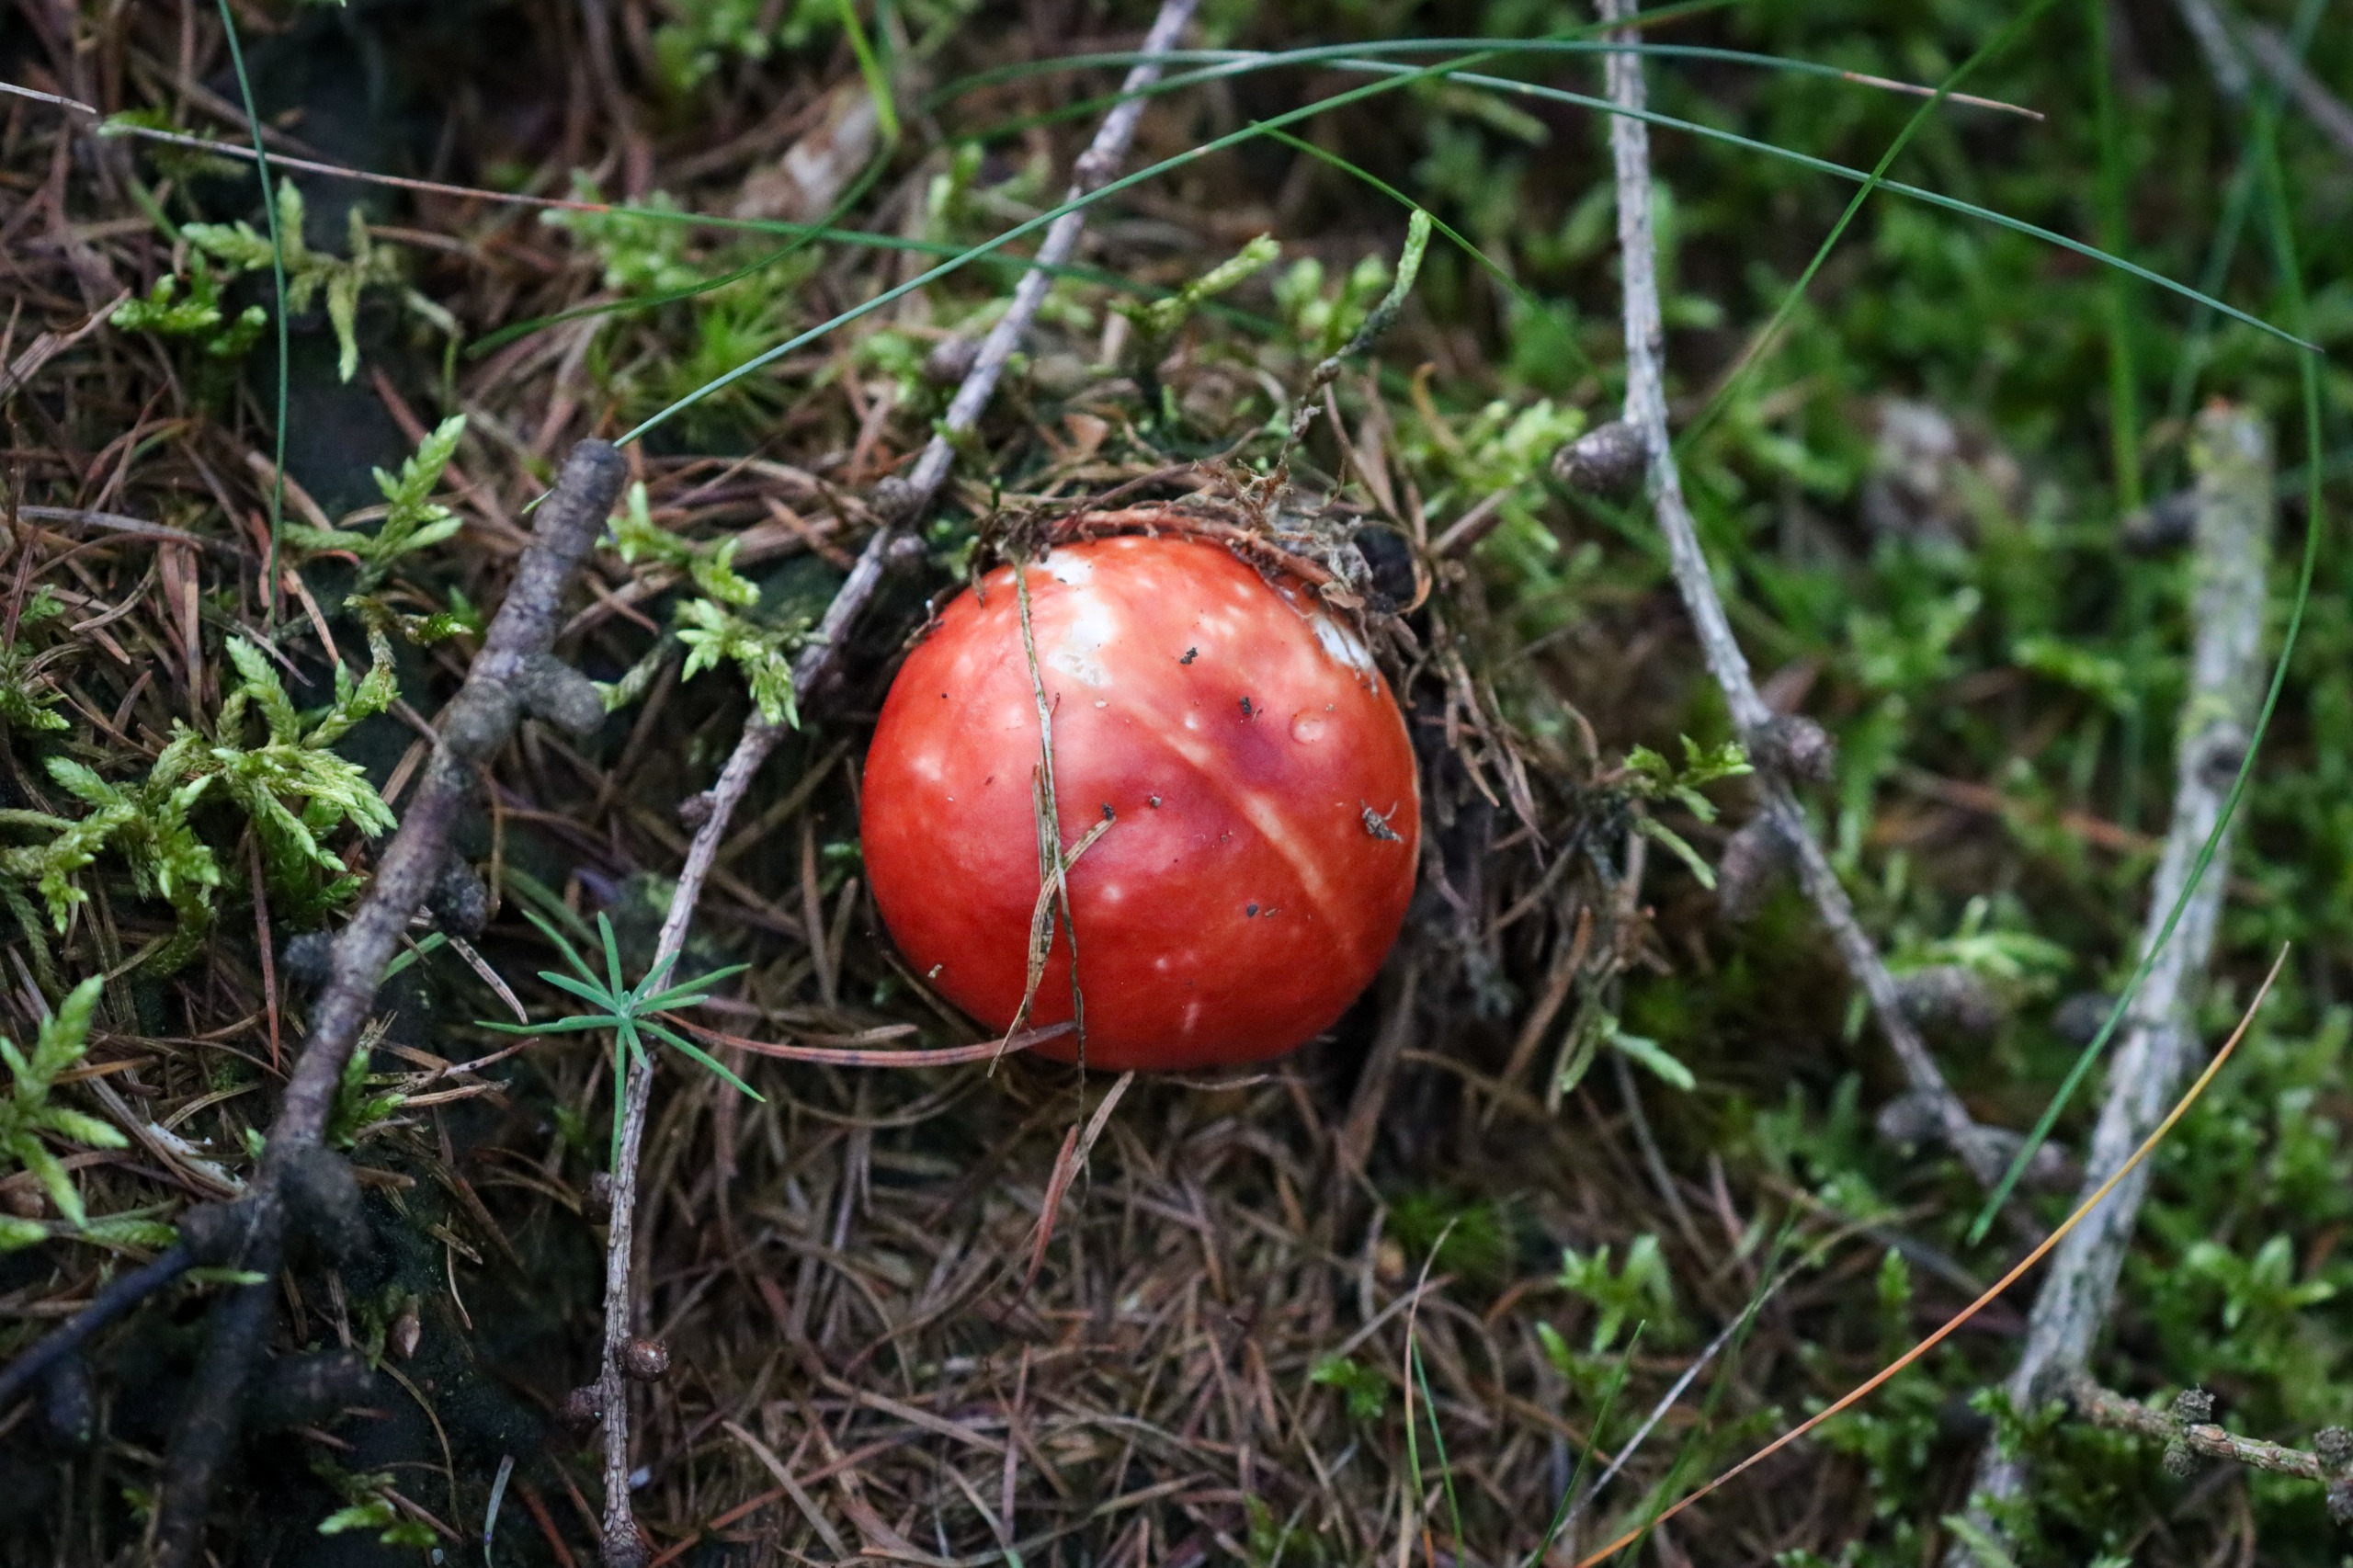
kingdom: Fungi
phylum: Basidiomycota
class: Agaricomycetes
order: Agaricales
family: Amanitaceae
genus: Amanita
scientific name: Amanita muscaria
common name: Rød fluesvamp
